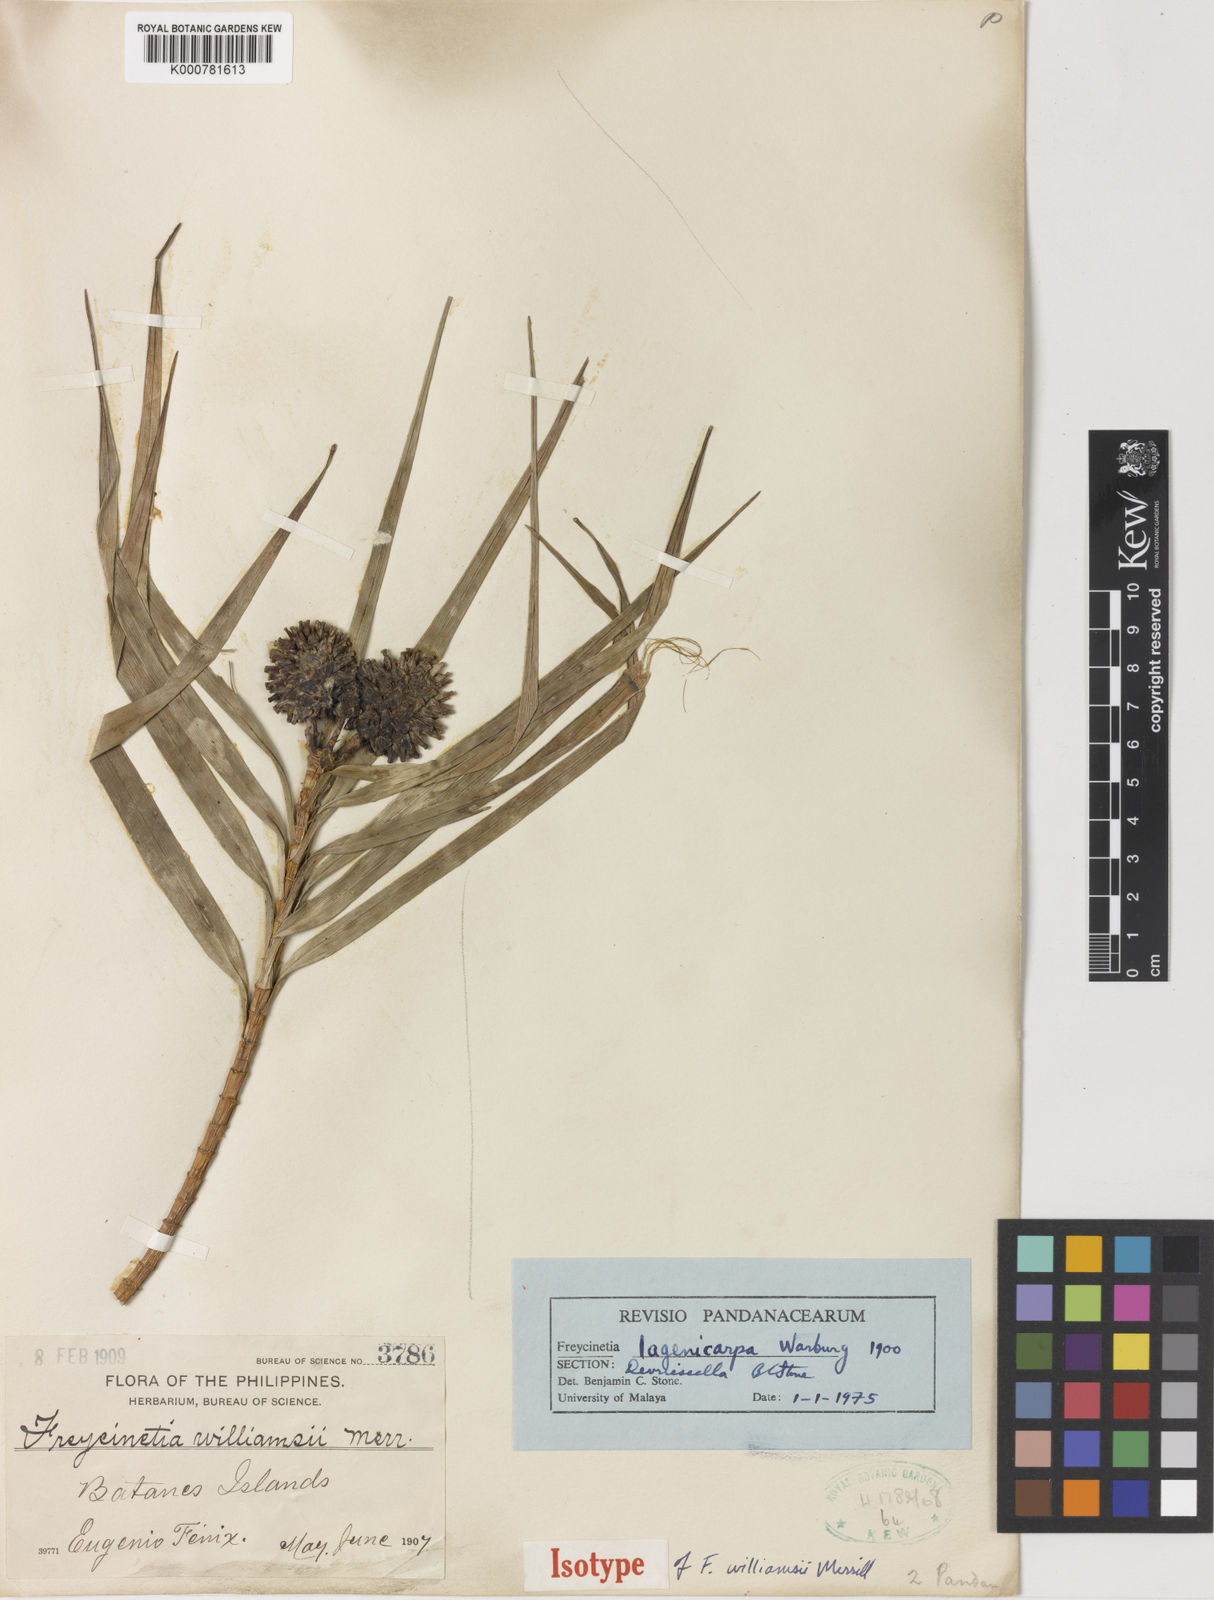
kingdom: Plantae
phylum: Tracheophyta
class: Liliopsida
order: Pandanales
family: Pandanaceae
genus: Freycinetia
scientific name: Freycinetia lagenicarpa
